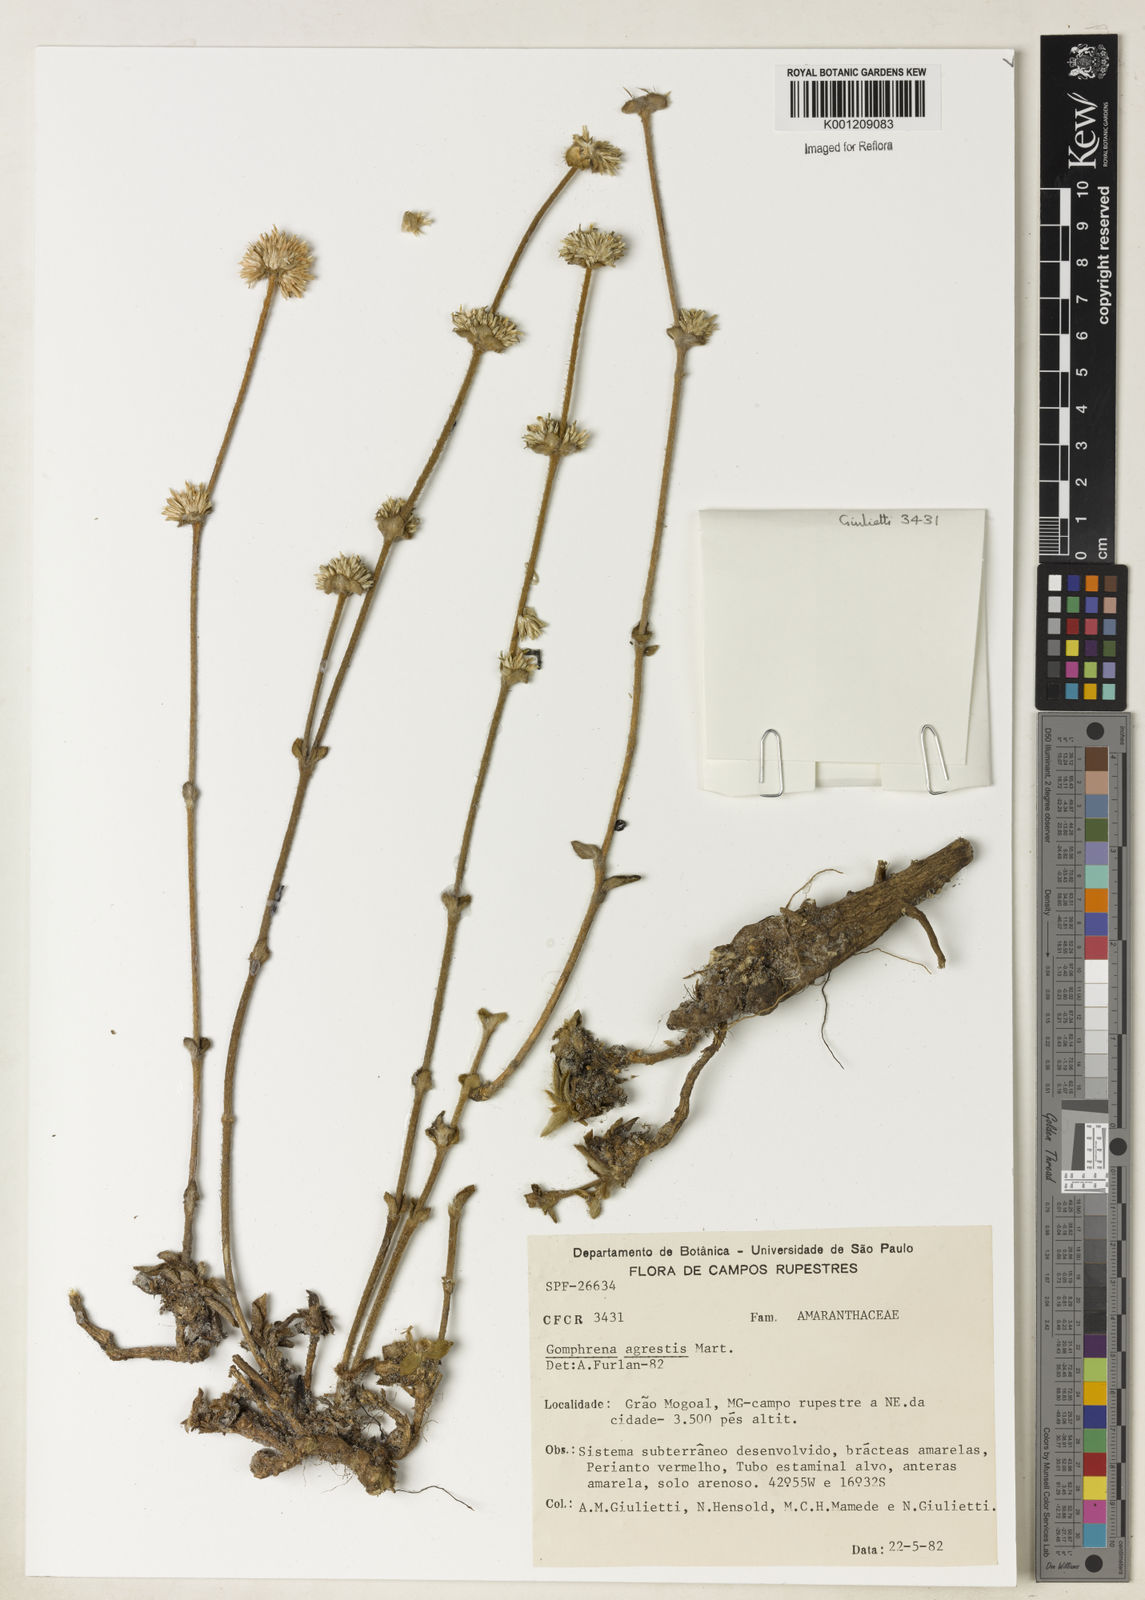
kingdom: Plantae
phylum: Tracheophyta
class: Magnoliopsida
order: Caryophyllales
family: Amaranthaceae
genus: Gomphrena
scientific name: Gomphrena agrestis
